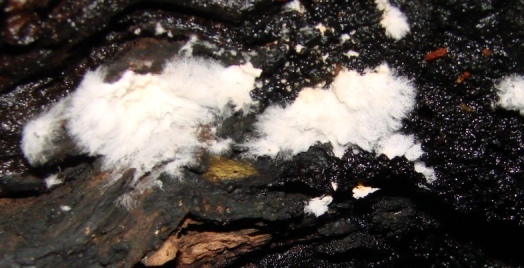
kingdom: Fungi
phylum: Basidiomycota
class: Agaricomycetes
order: Boletales
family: Coniophoraceae
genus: Coniophora
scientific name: Coniophora puteana
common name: gul tømmersvamp
